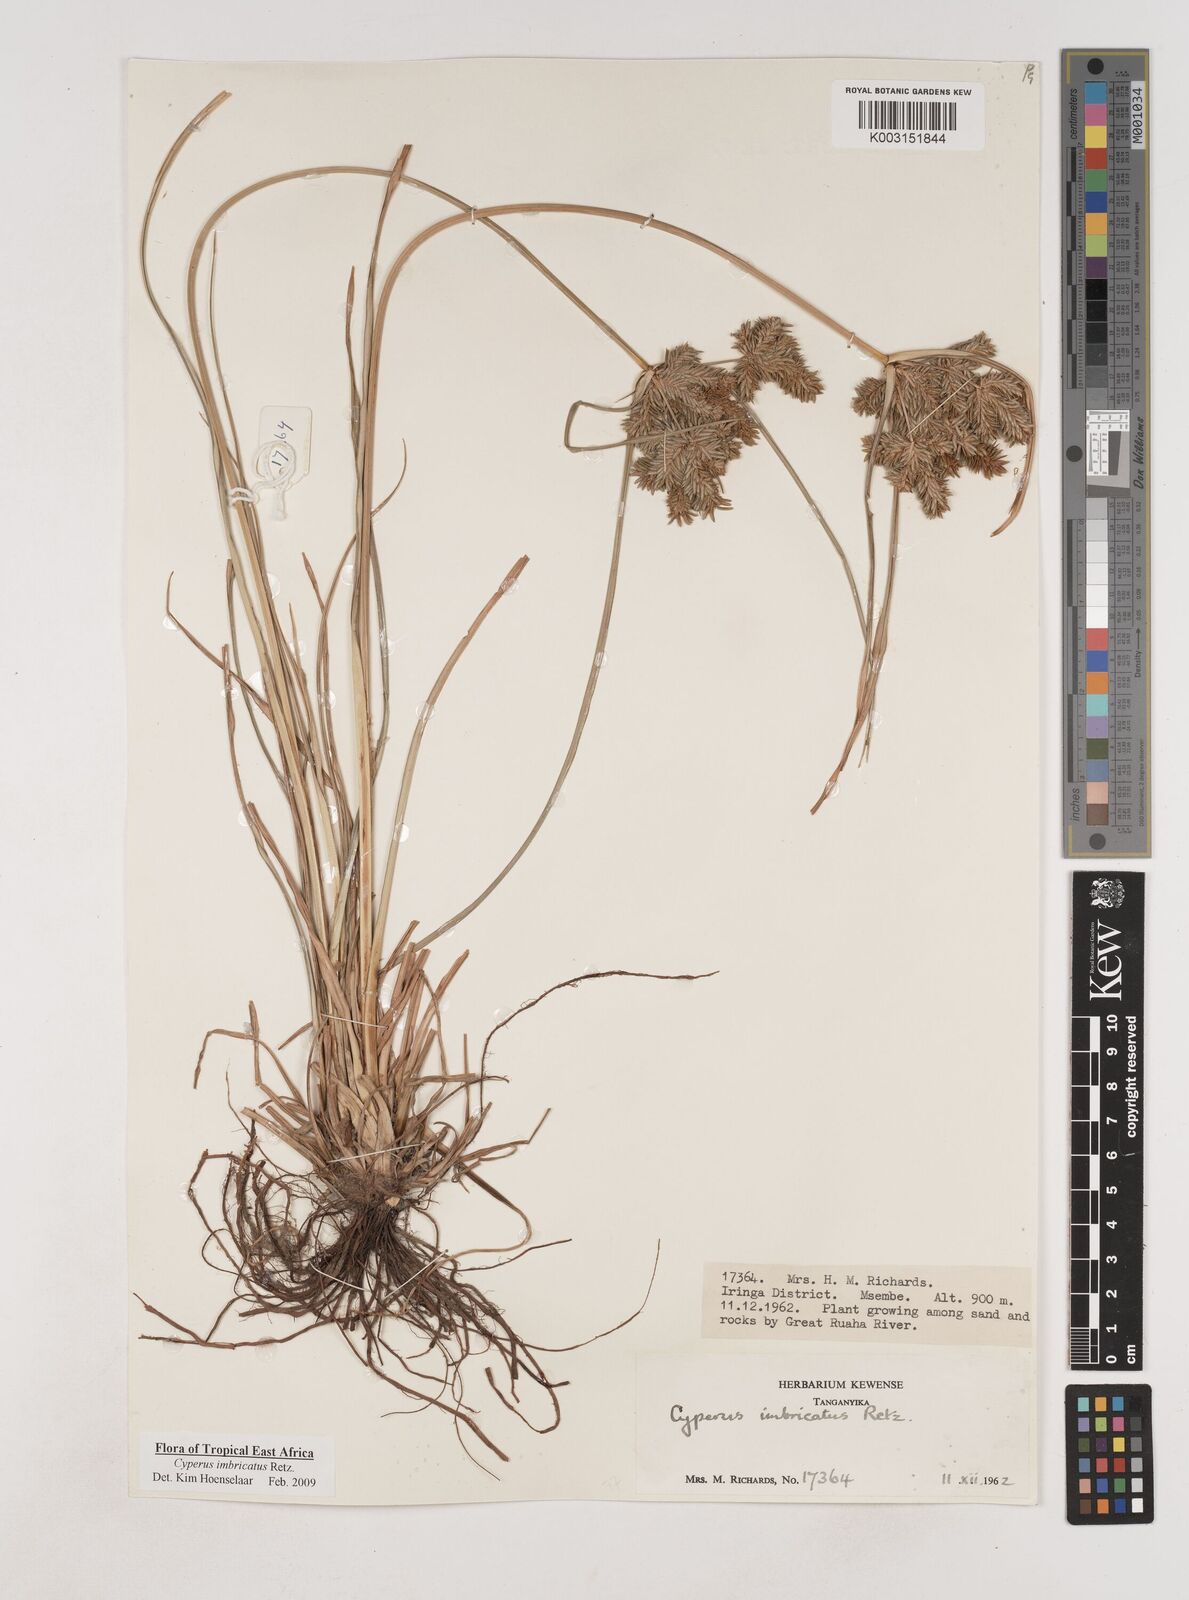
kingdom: Plantae
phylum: Tracheophyta
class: Liliopsida
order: Poales
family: Cyperaceae
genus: Cyperus
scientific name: Cyperus imbricatus
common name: Shingle flatsedge
